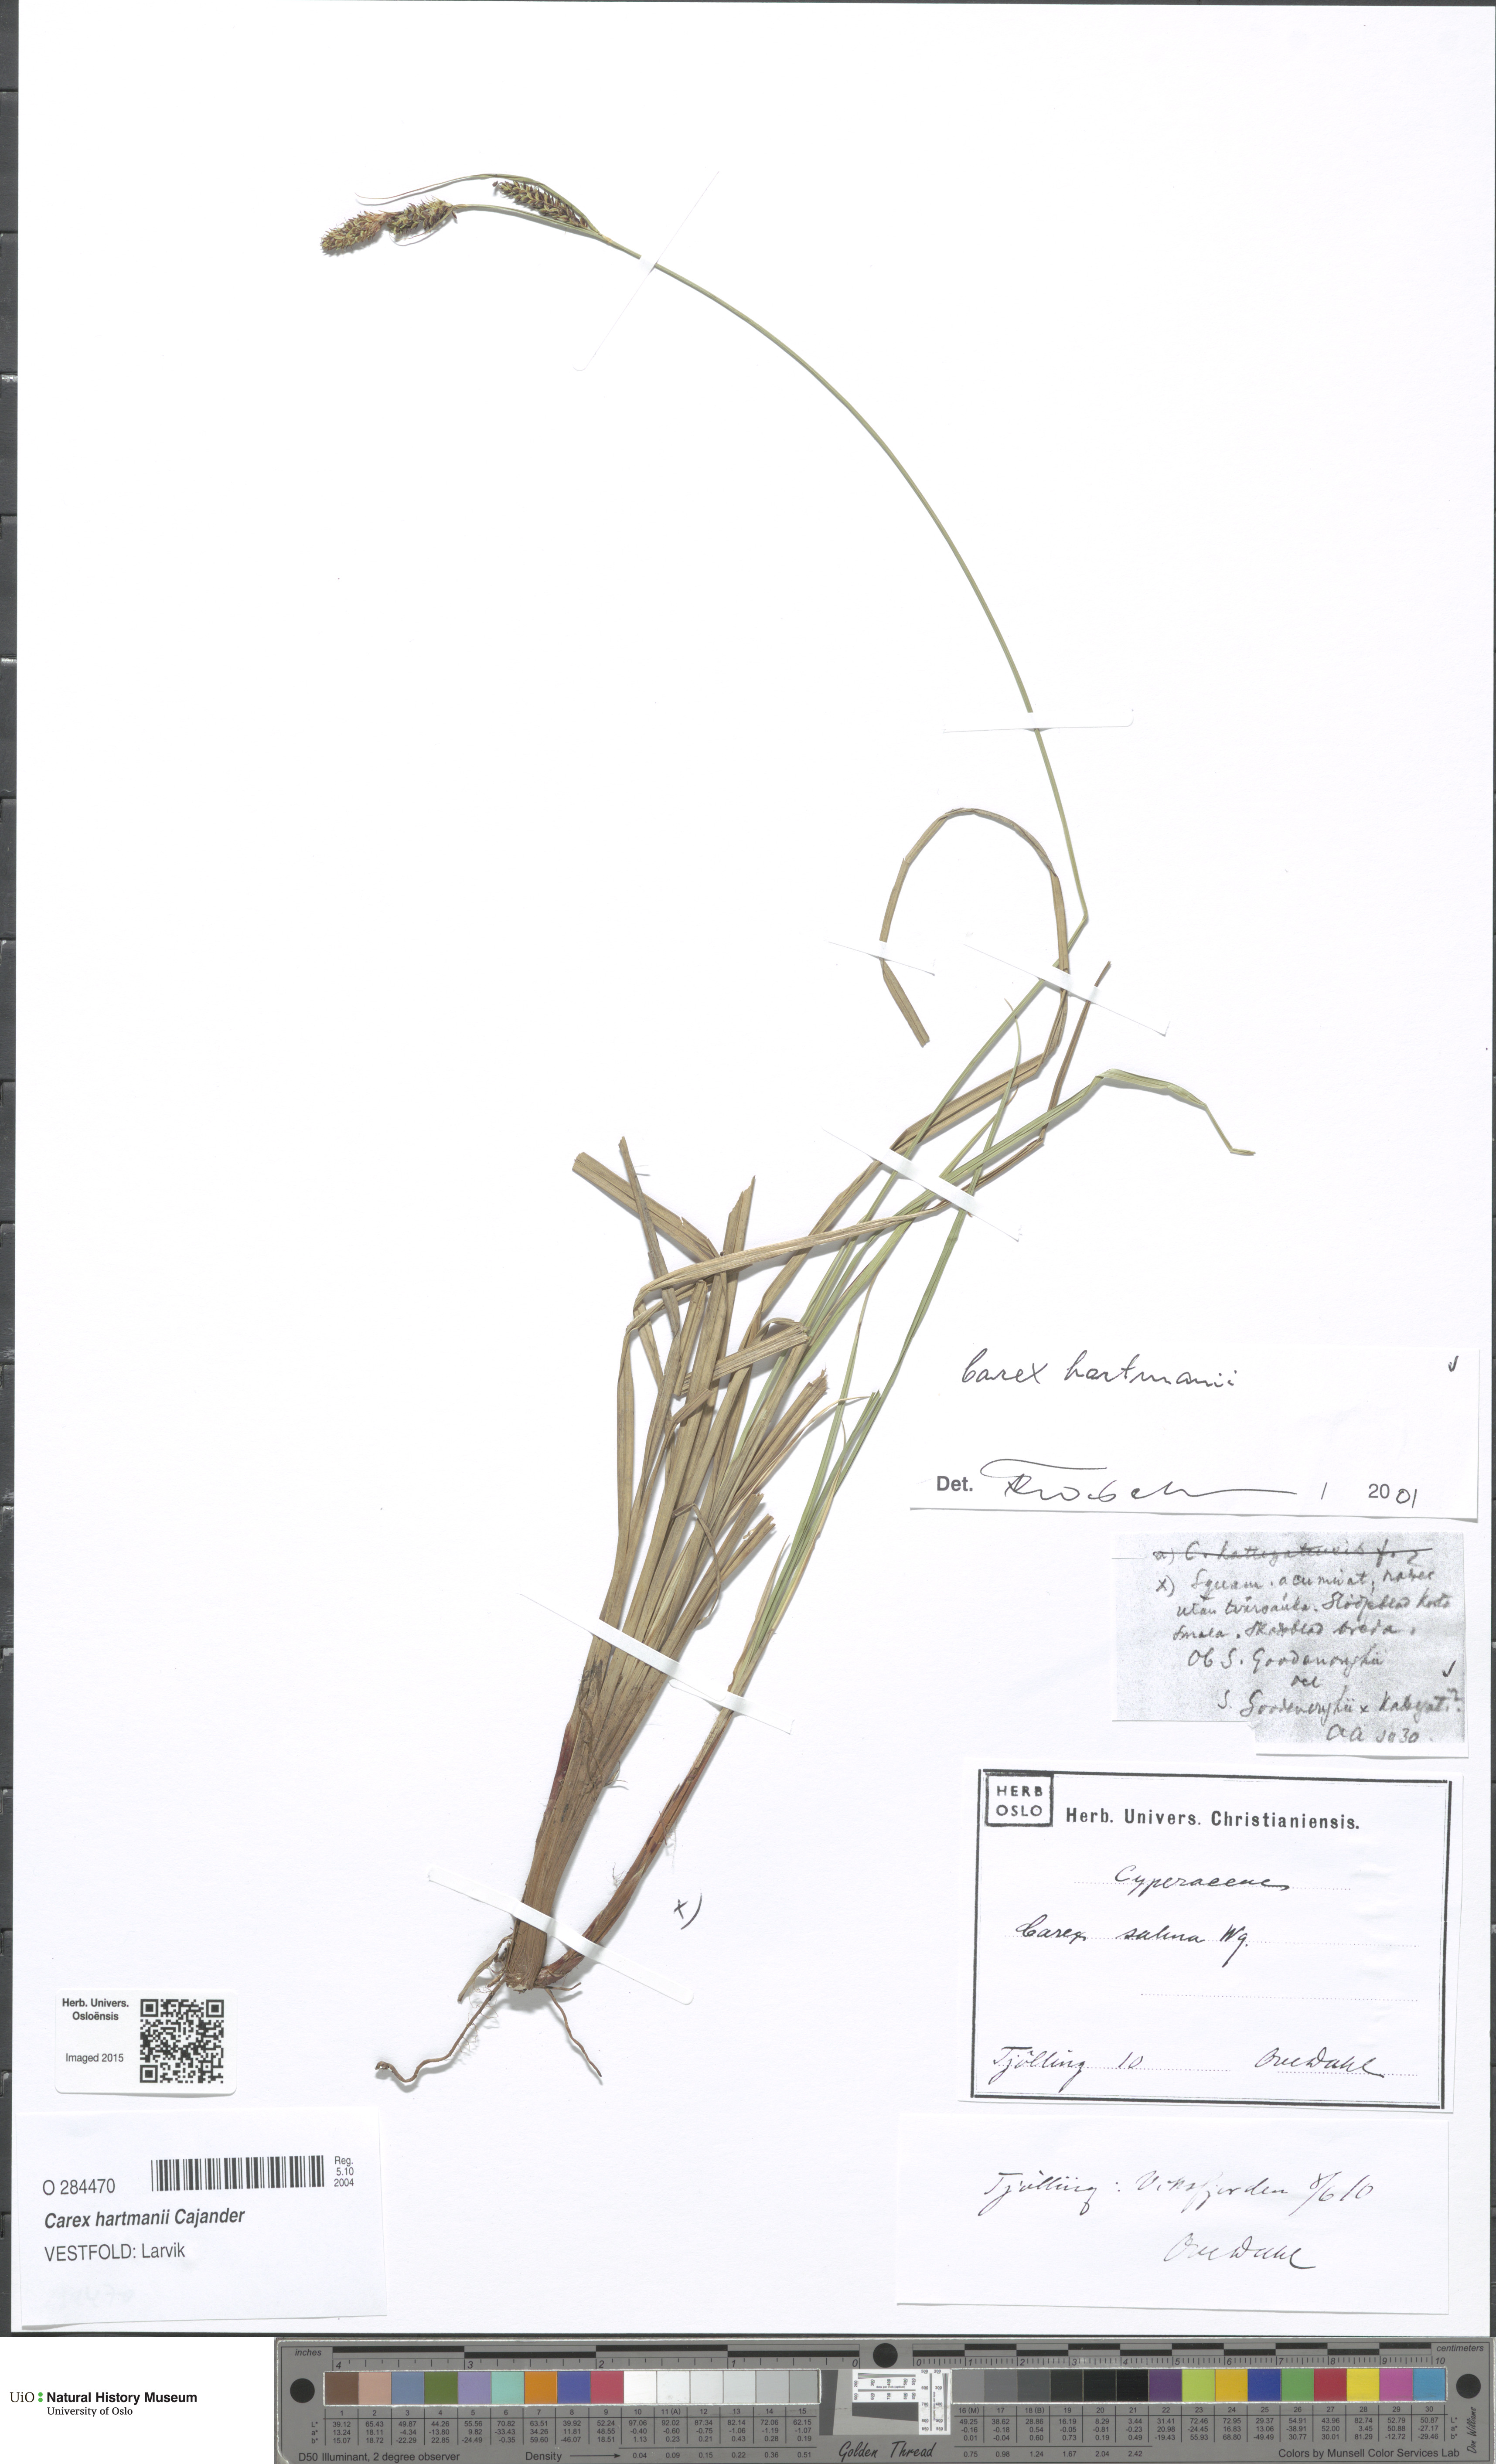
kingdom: Plantae
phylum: Tracheophyta
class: Liliopsida
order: Poales
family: Cyperaceae
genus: Carex
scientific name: Carex hartmaniorum
